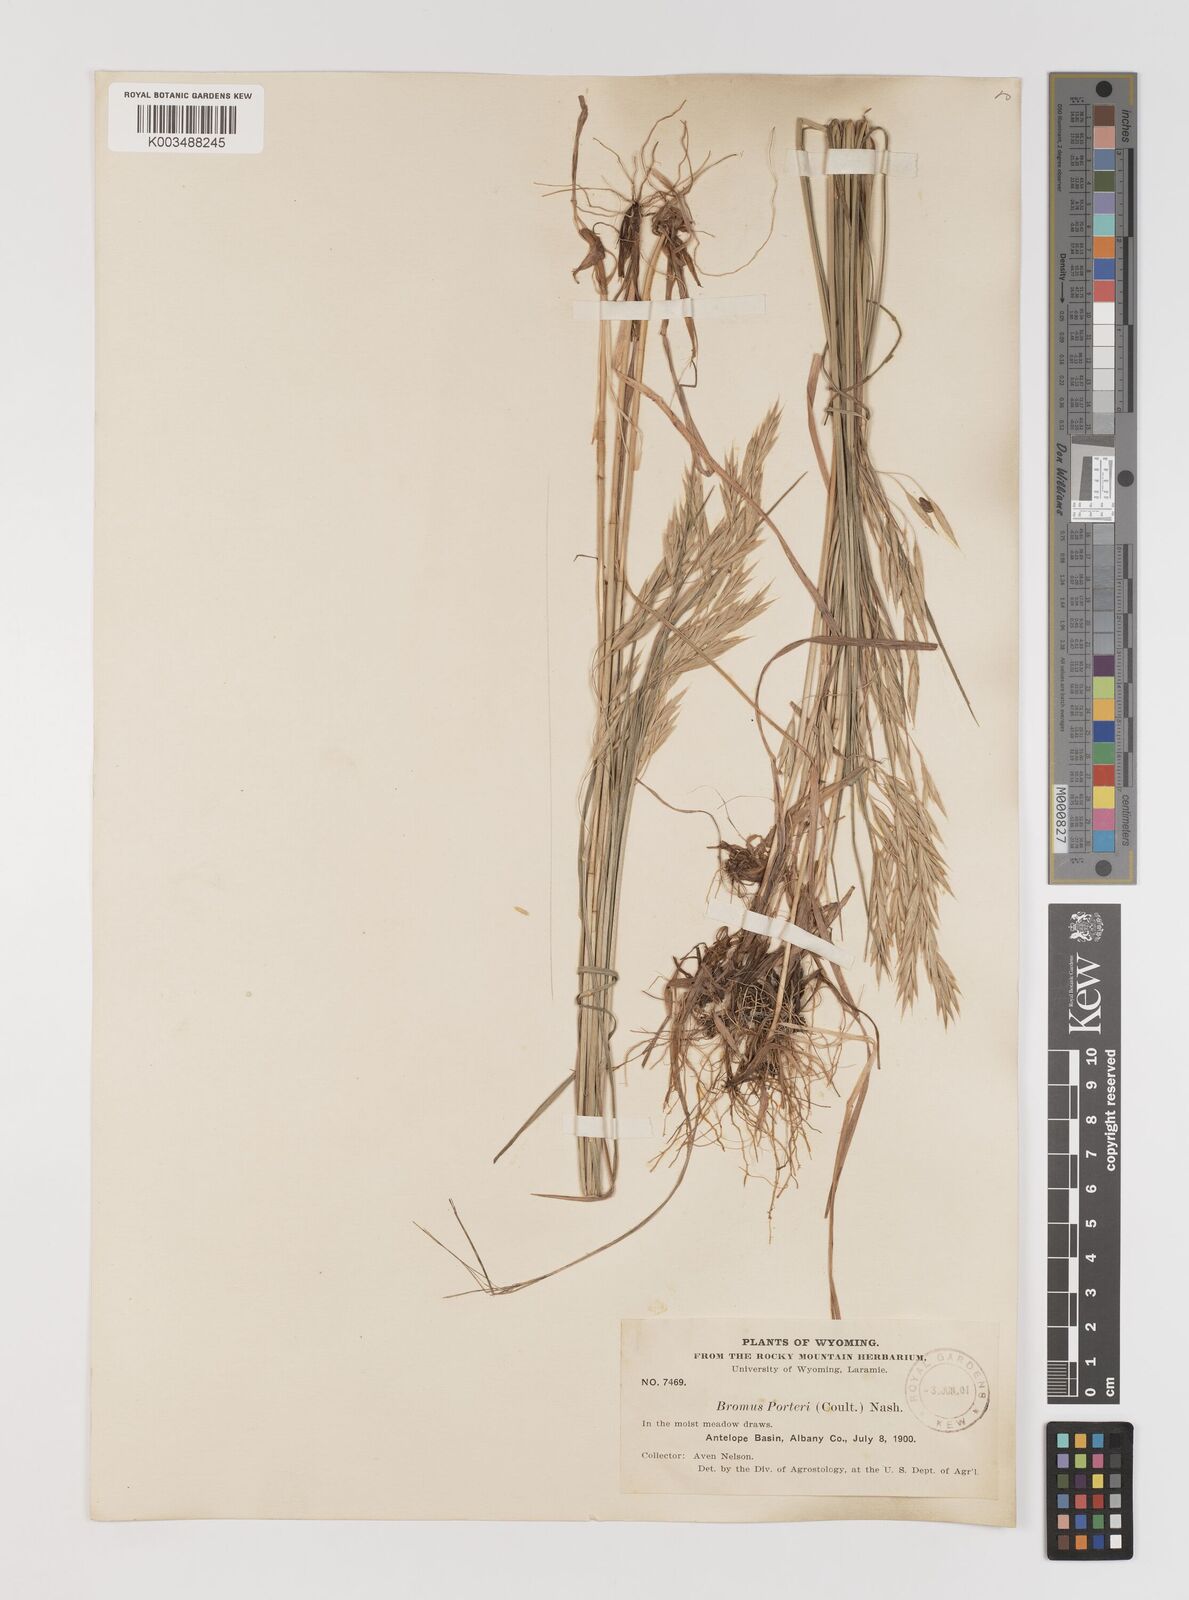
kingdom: Plantae
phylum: Tracheophyta
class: Liliopsida
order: Poales
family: Poaceae
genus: Bromus
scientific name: Bromus porteri
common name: Nodding brome
